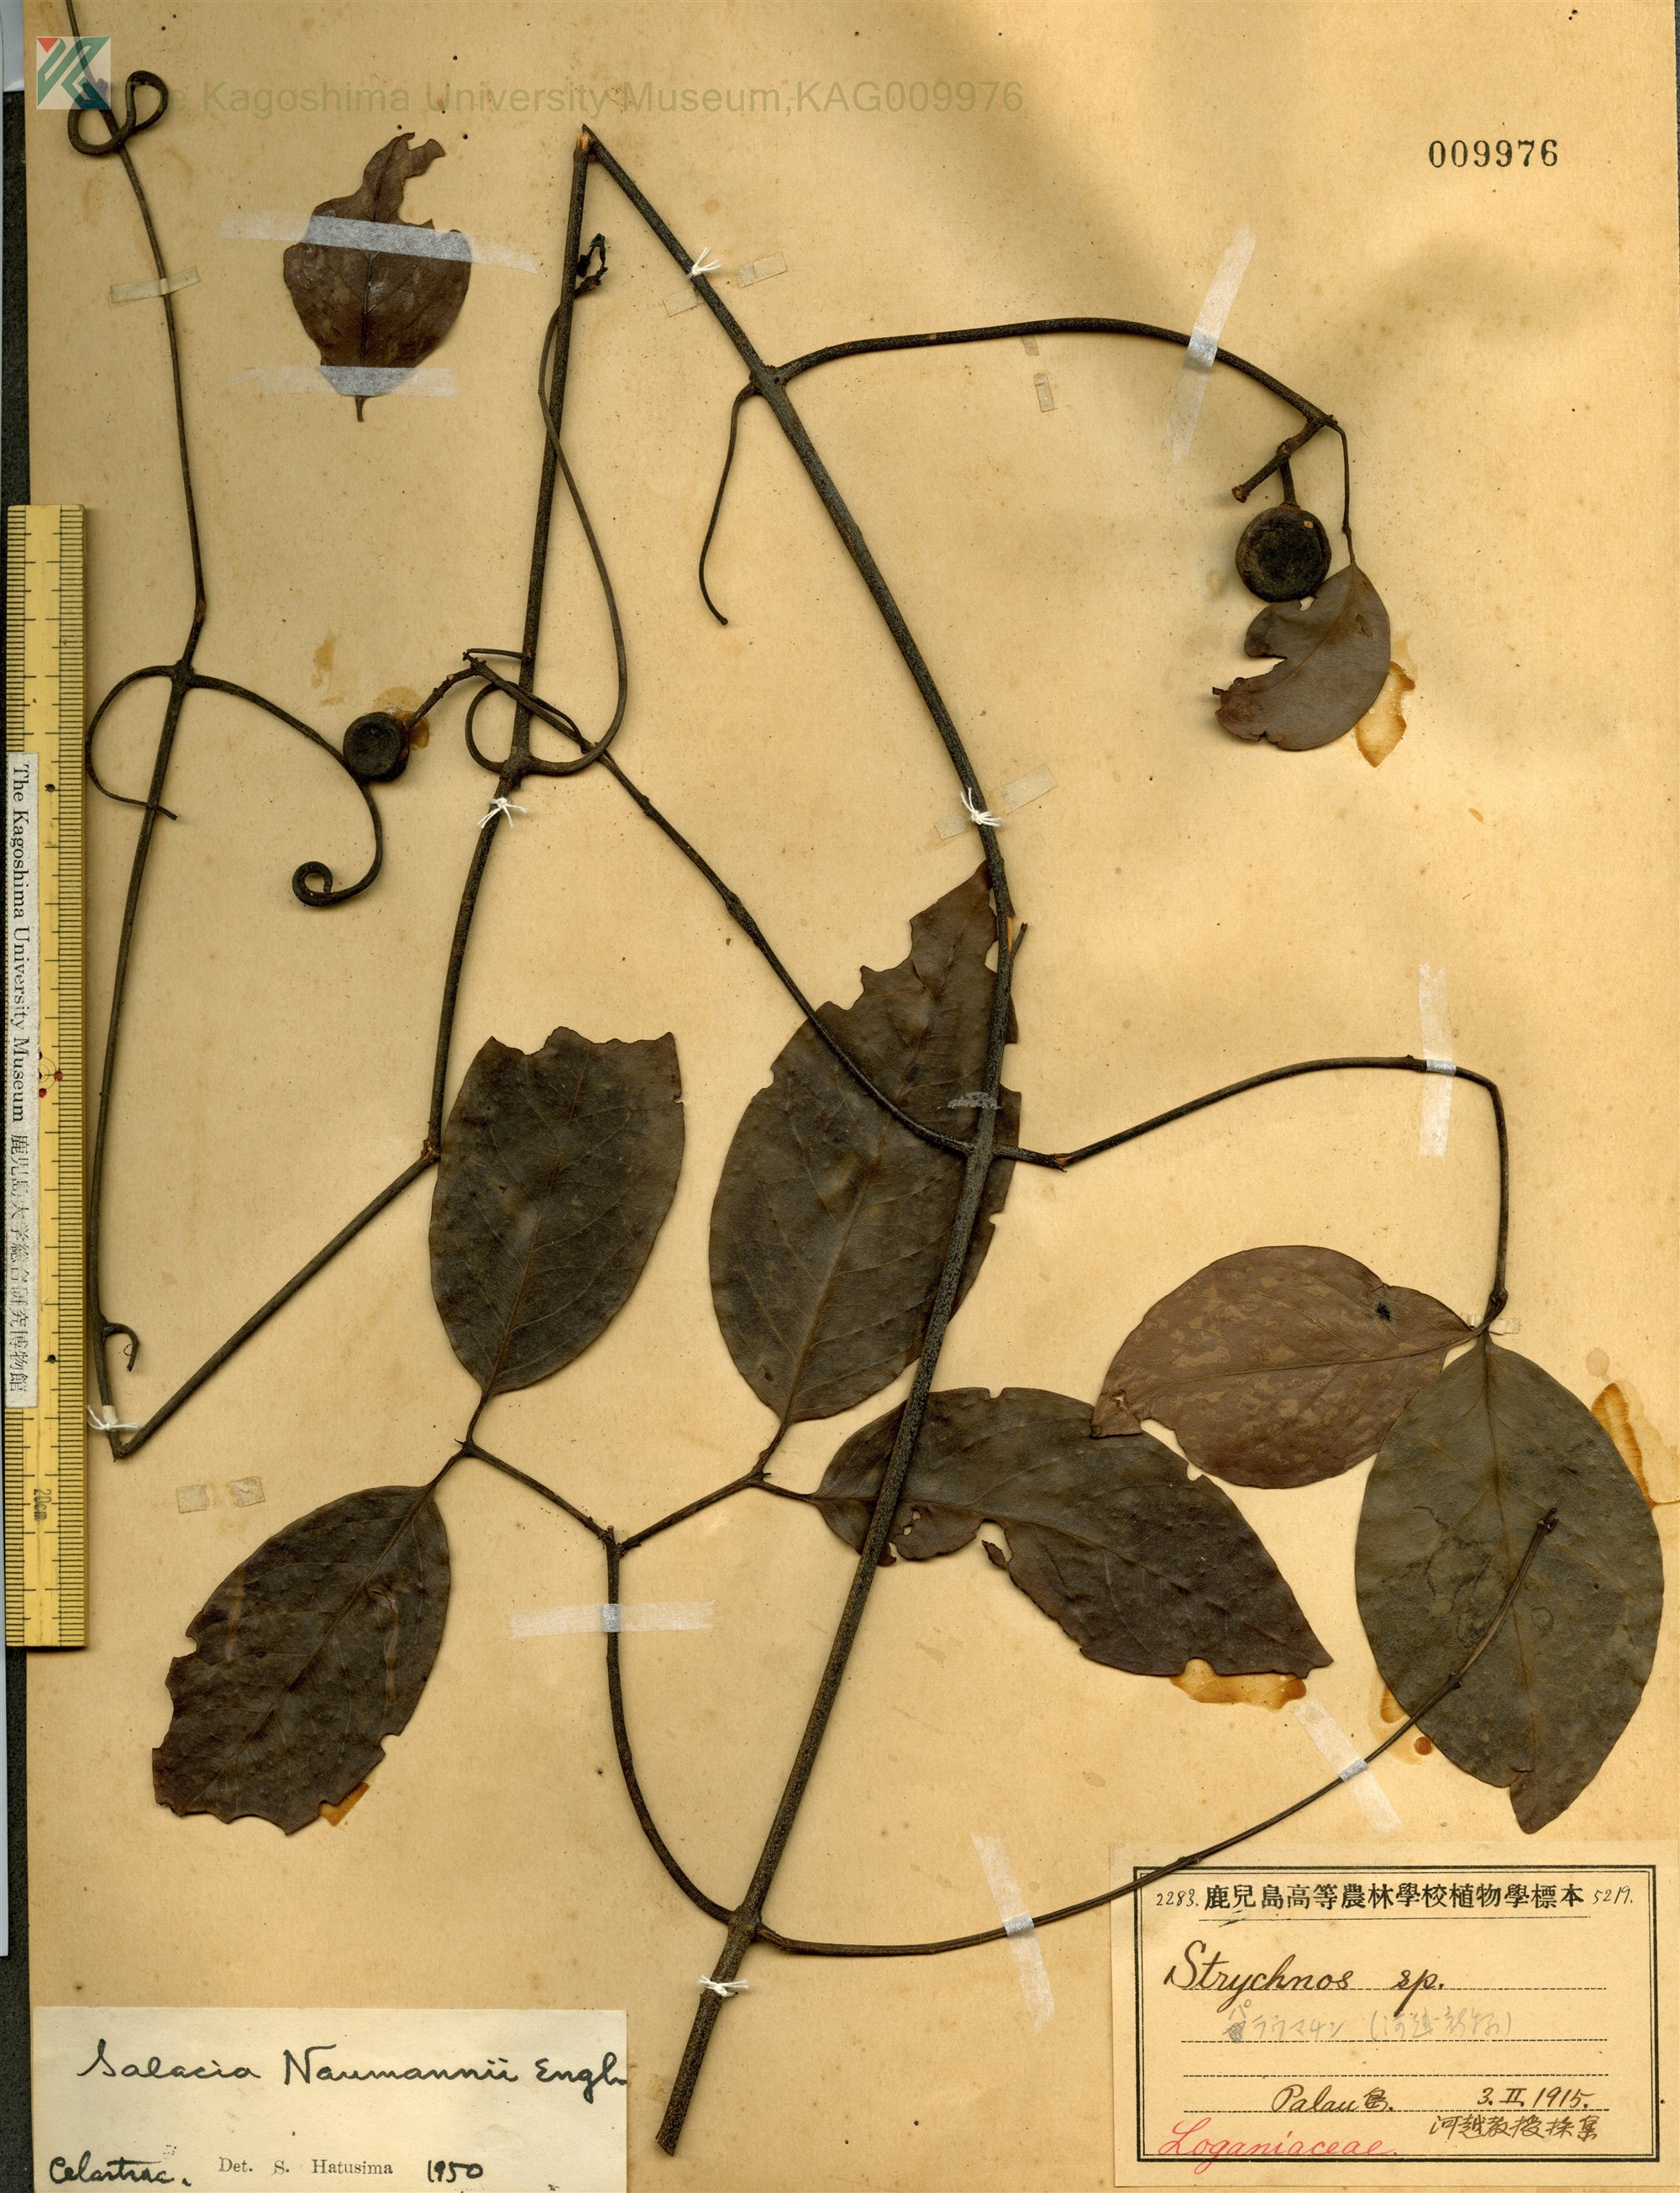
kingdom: Plantae
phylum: Tracheophyta
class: Magnoliopsida
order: Celastrales
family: Celastraceae
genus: Salacia
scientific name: Salacia chinensis
